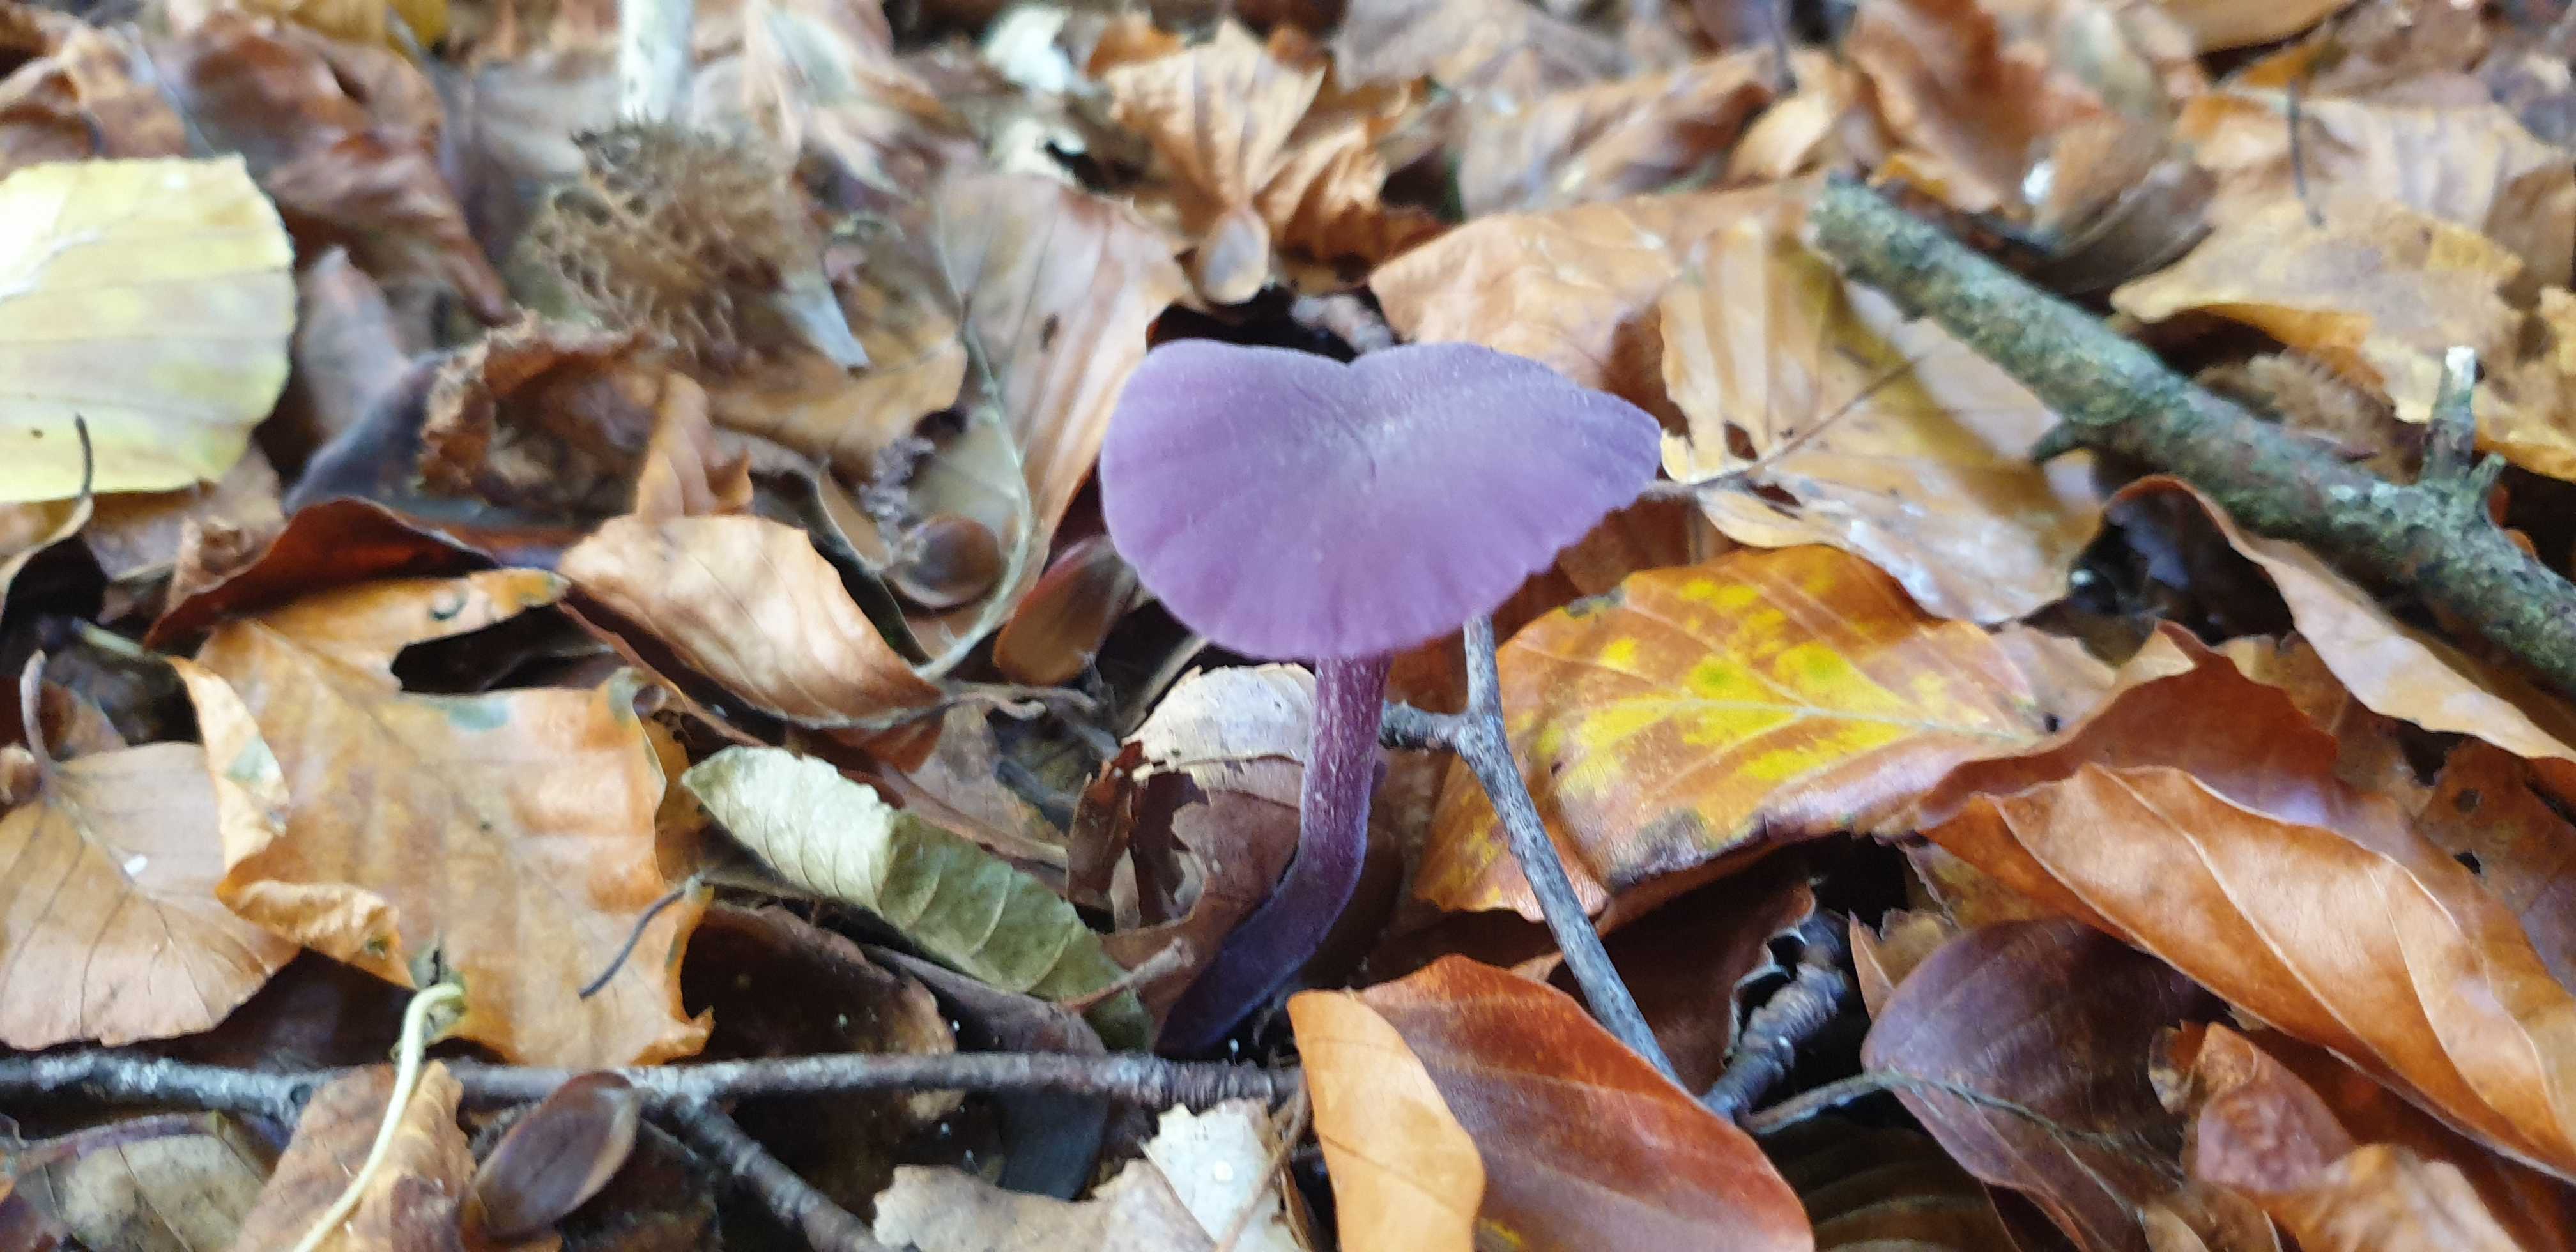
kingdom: Fungi
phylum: Basidiomycota
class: Agaricomycetes
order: Agaricales
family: Hydnangiaceae
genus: Laccaria
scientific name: Laccaria amethystina
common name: violet ametysthat
